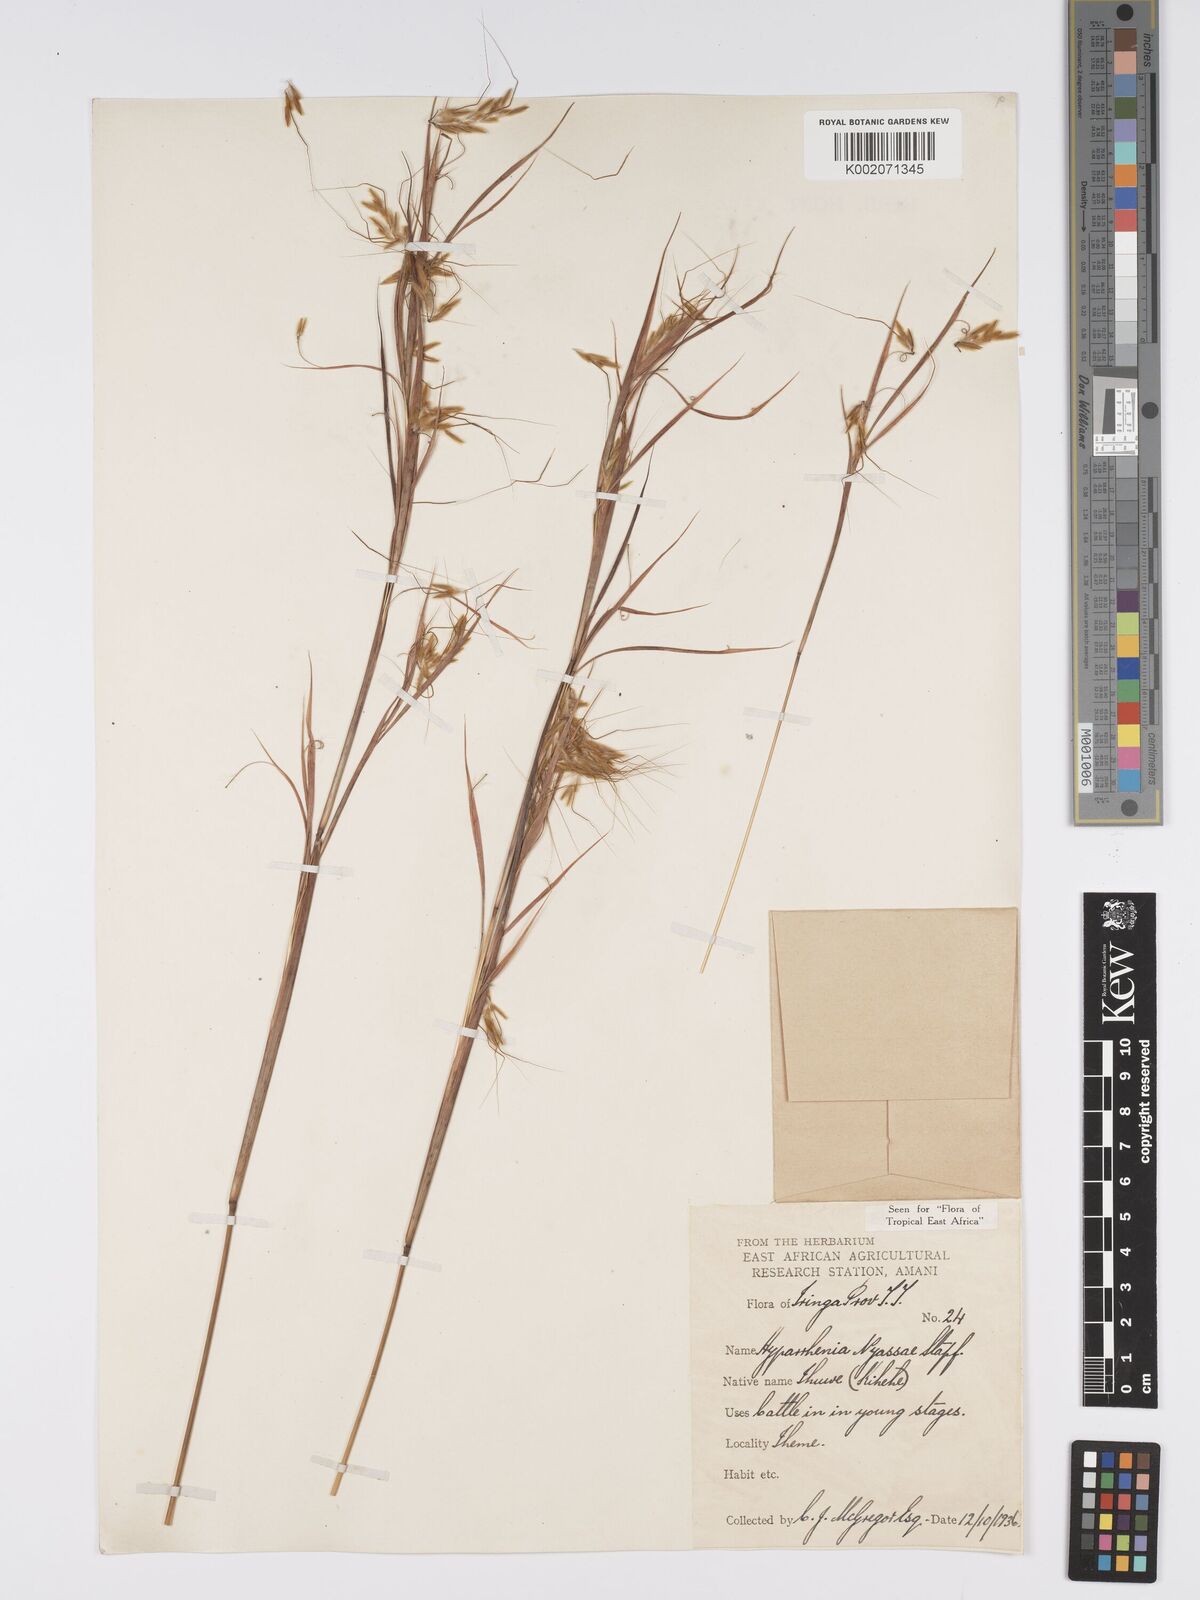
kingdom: Plantae
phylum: Tracheophyta
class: Liliopsida
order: Poales
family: Poaceae
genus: Hyparrhenia
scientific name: Hyparrhenia nyassae
